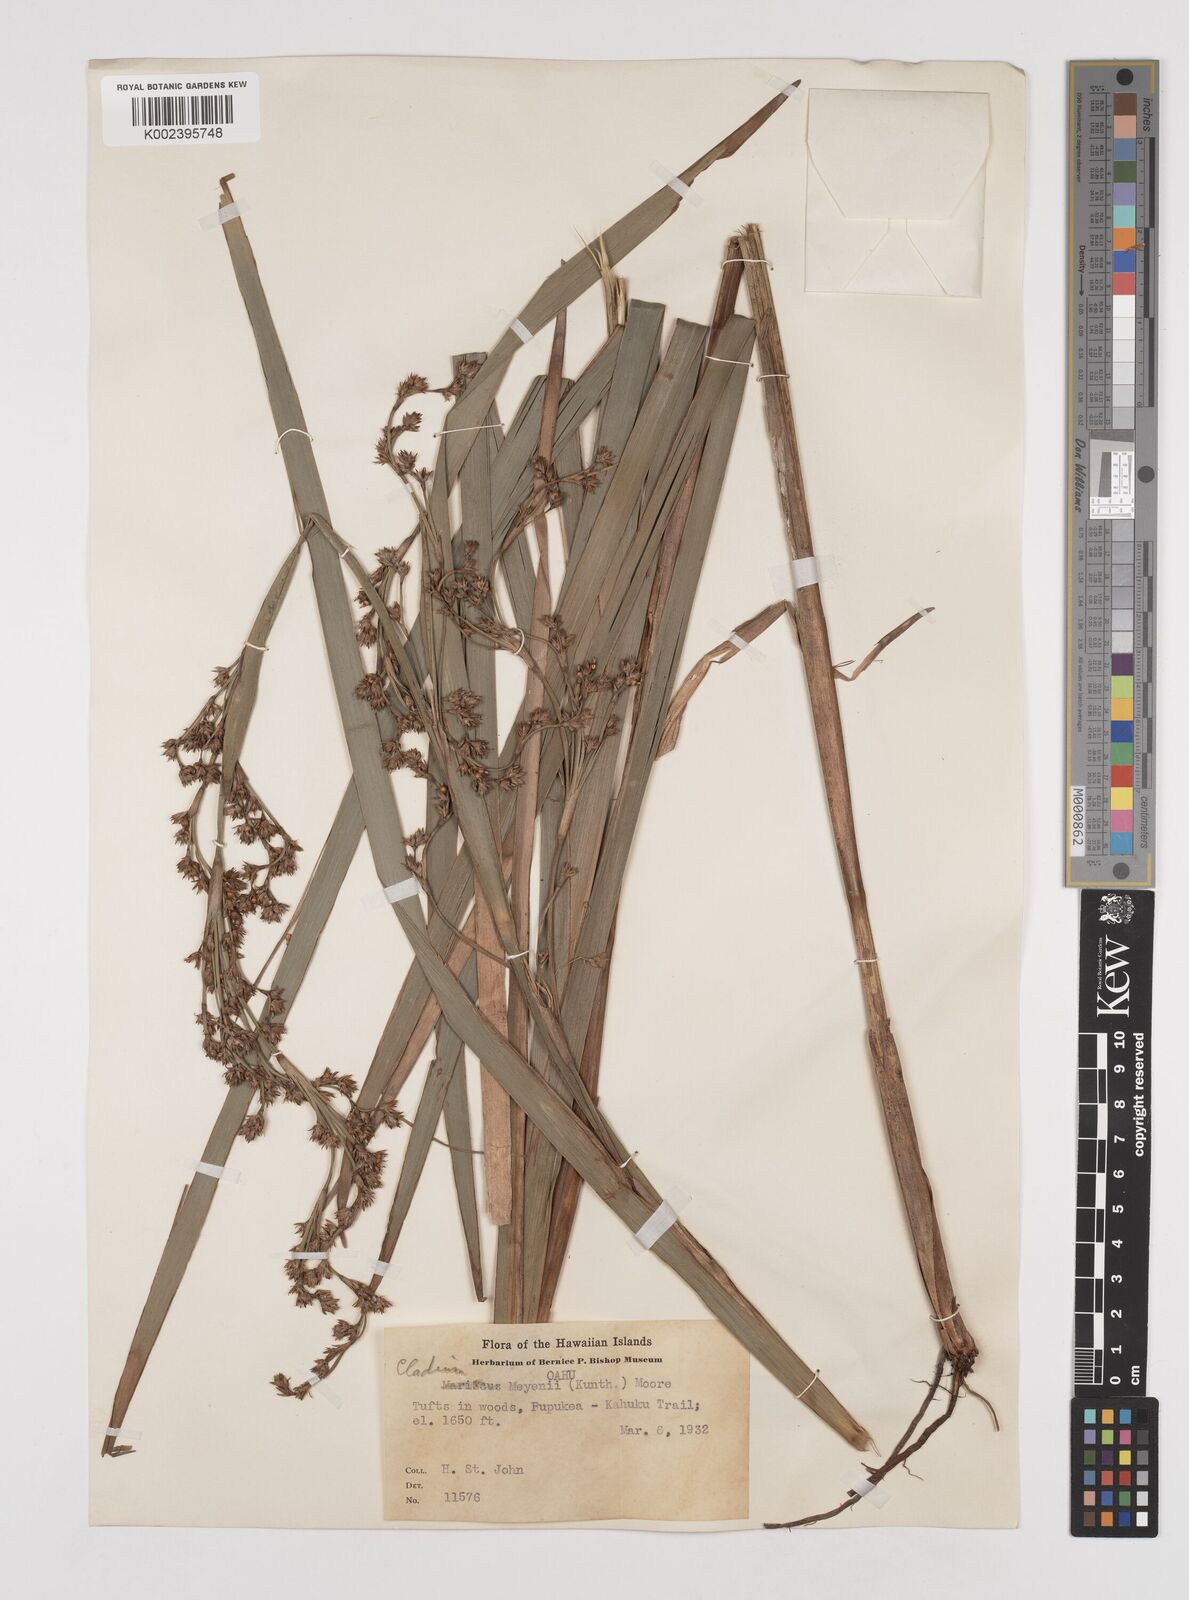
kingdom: Plantae
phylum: Tracheophyta
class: Liliopsida
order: Poales
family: Cyperaceae
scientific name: Cyperaceae
